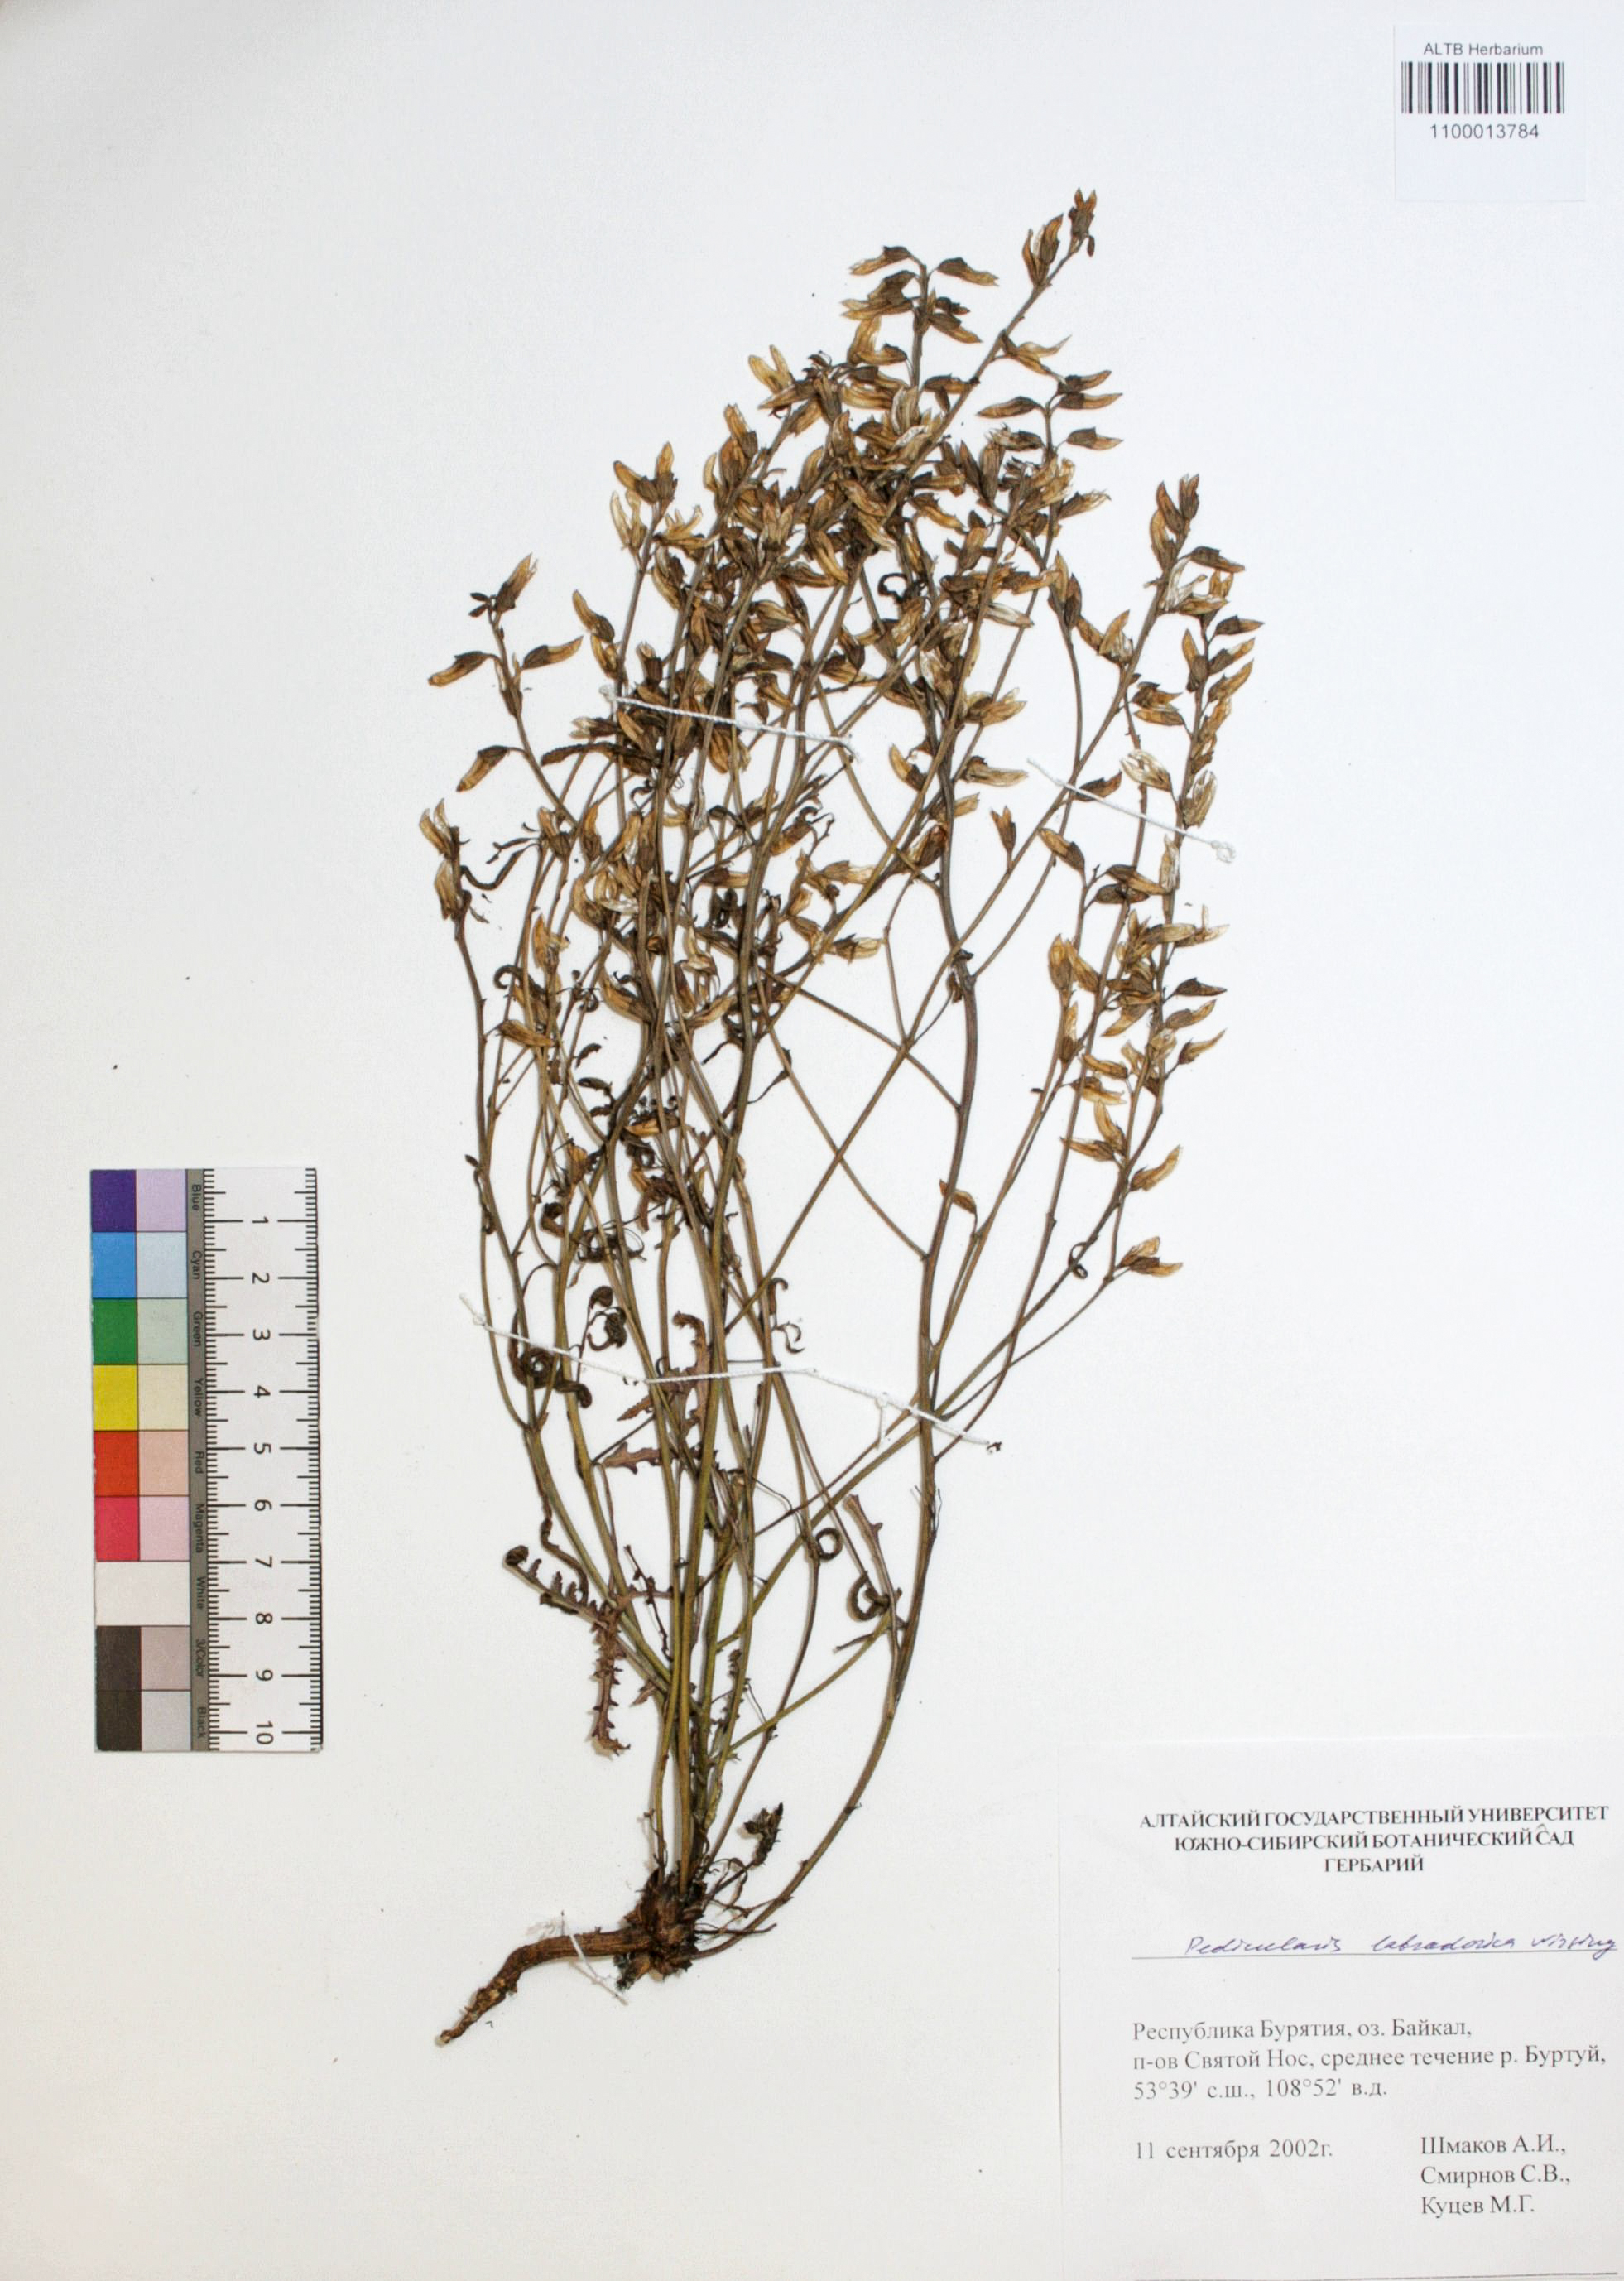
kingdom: Plantae
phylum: Tracheophyta
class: Magnoliopsida
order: Lamiales
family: Orobanchaceae
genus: Pedicularis
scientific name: Pedicularis labradorica
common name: Labrador lousewort
